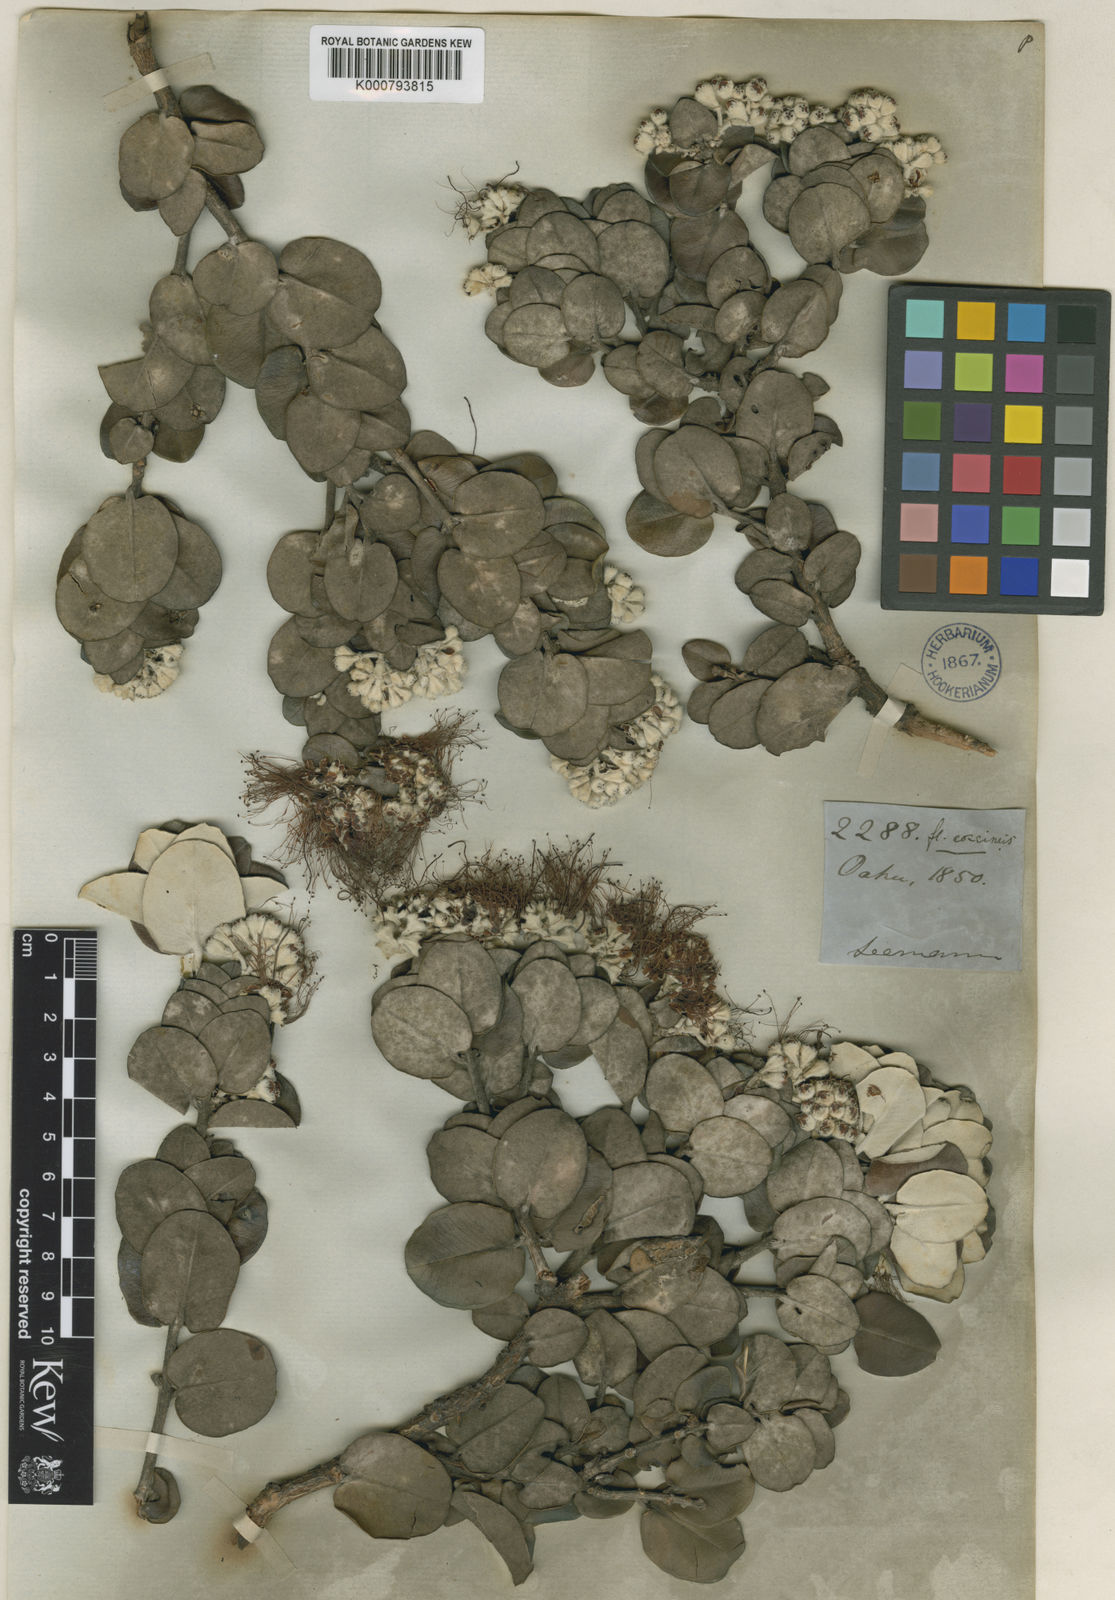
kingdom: Plantae
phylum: Tracheophyta
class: Magnoliopsida
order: Myrtales
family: Myrtaceae
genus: Metrosideros
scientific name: Metrosideros polymorpha
